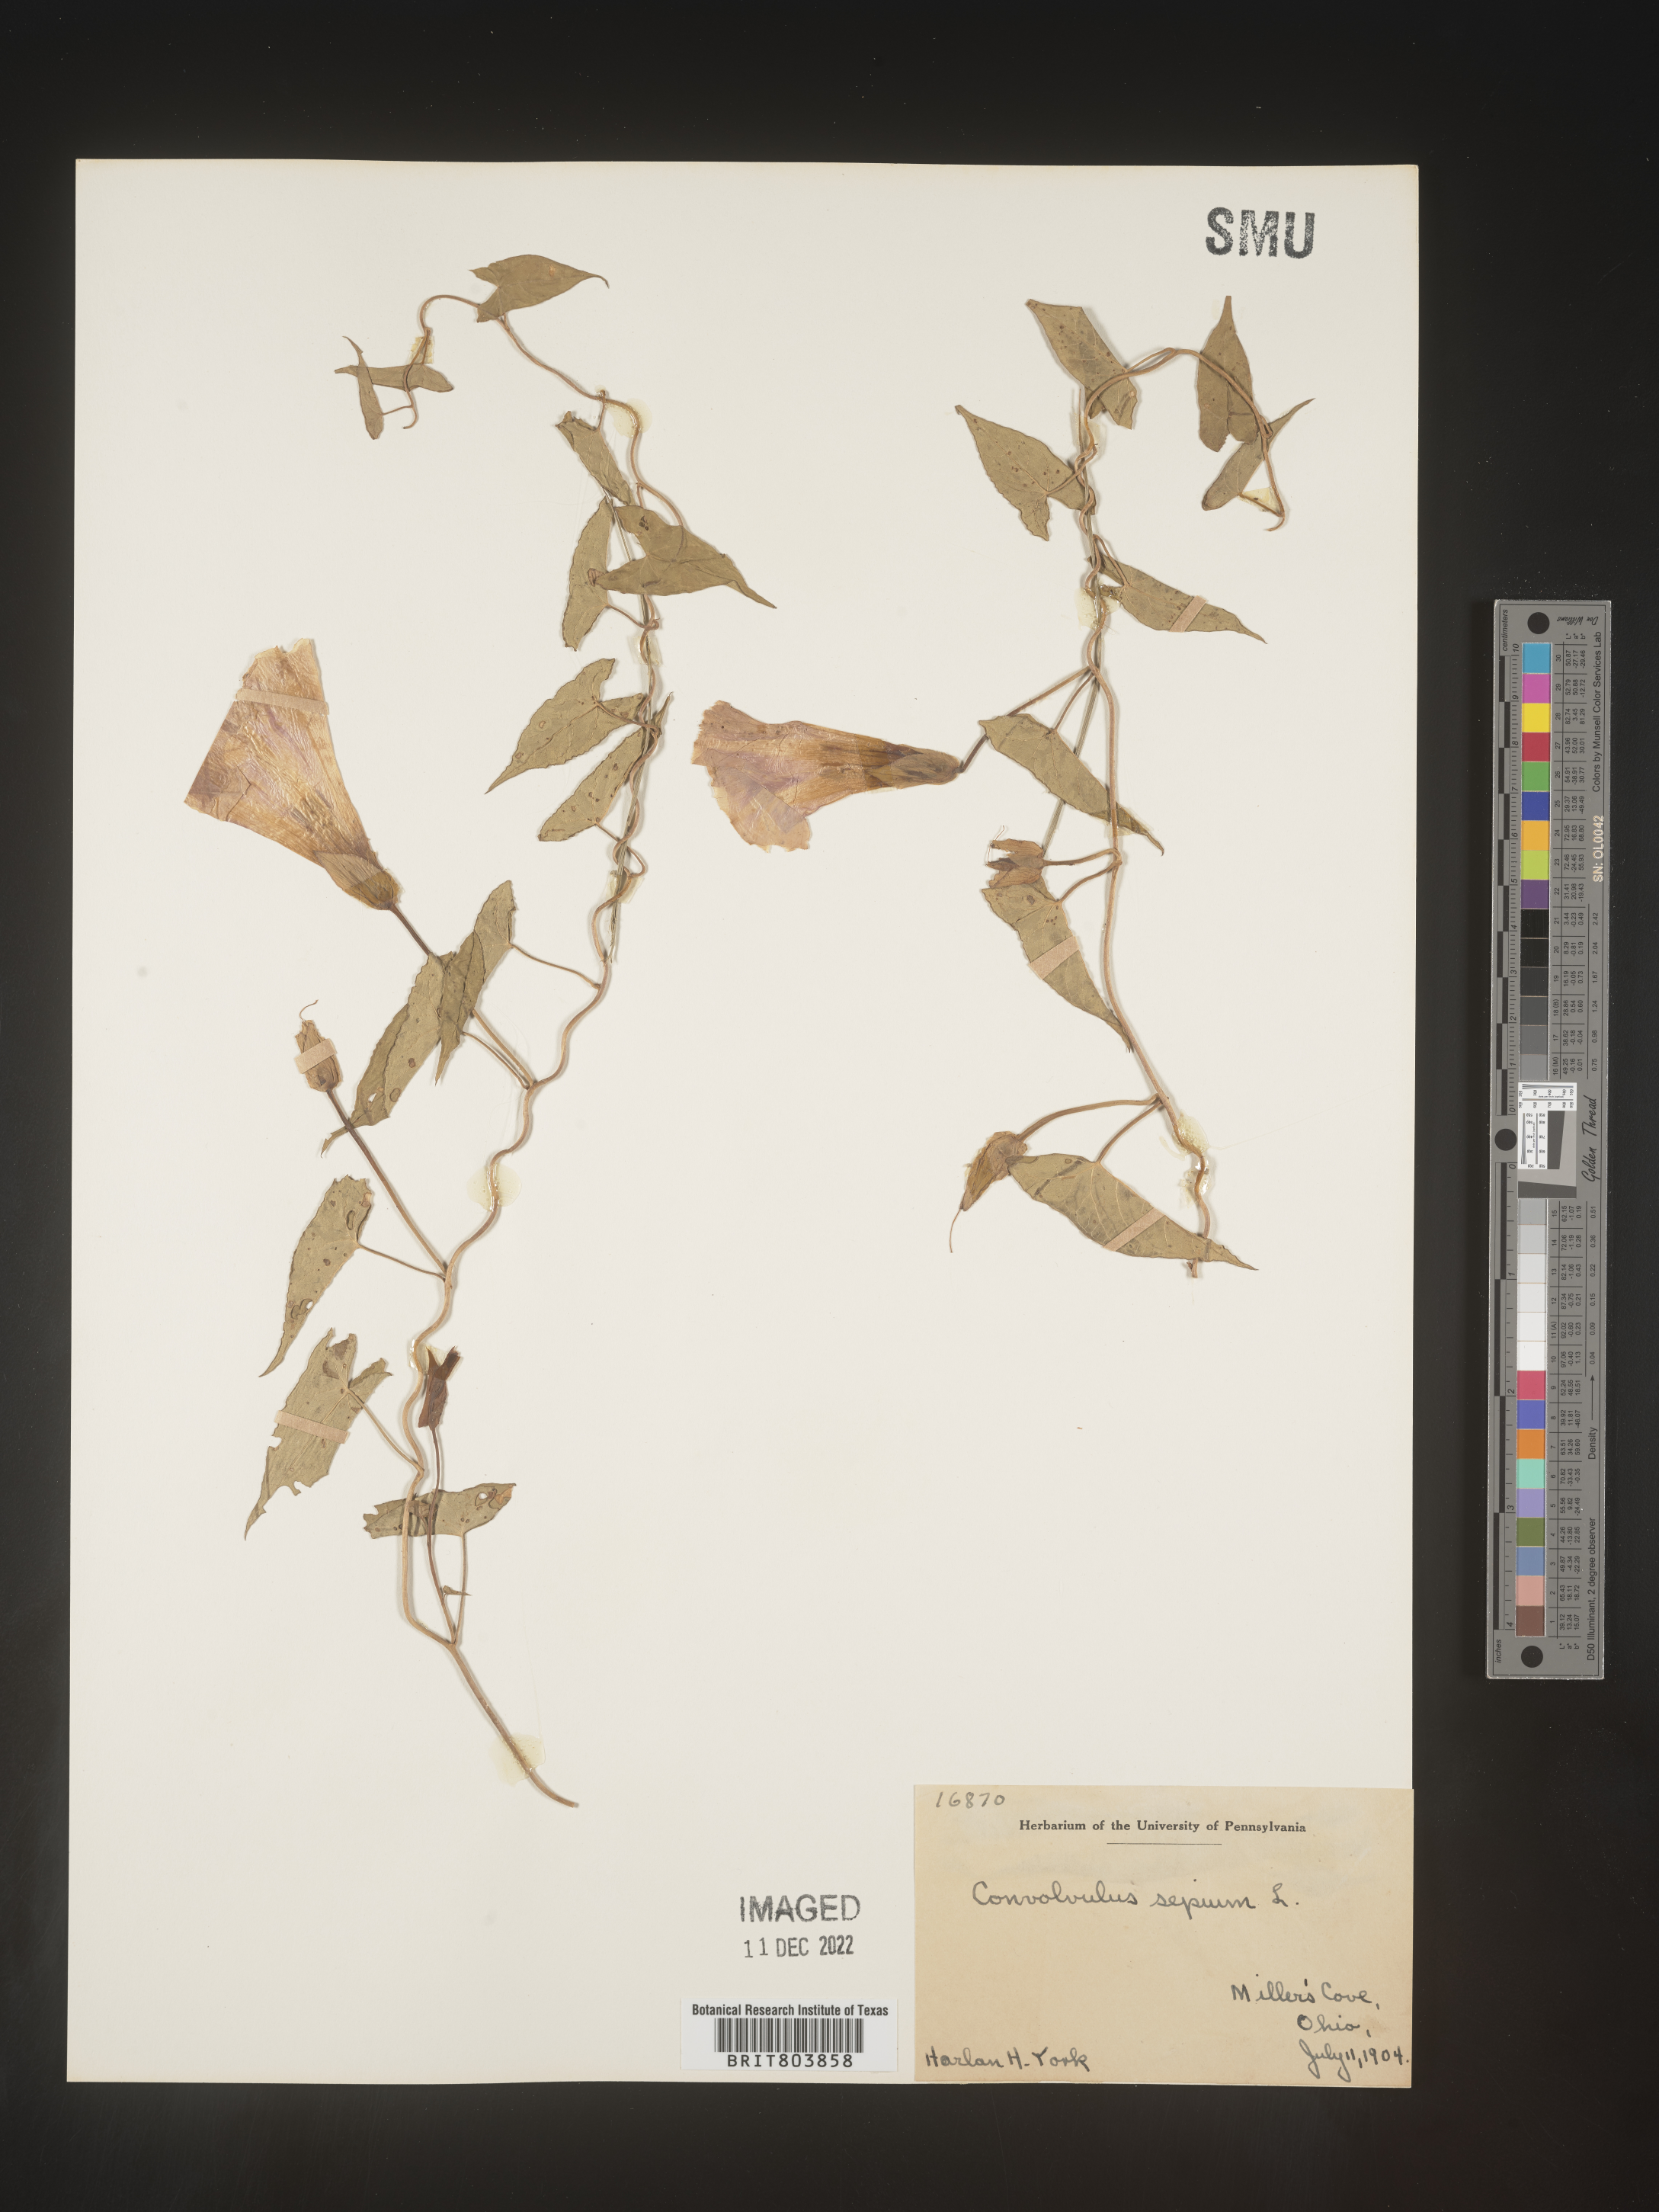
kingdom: Plantae
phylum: Tracheophyta
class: Magnoliopsida
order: Solanales
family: Convolvulaceae
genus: Calystegia
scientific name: Calystegia sepium
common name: Hedge bindweed
